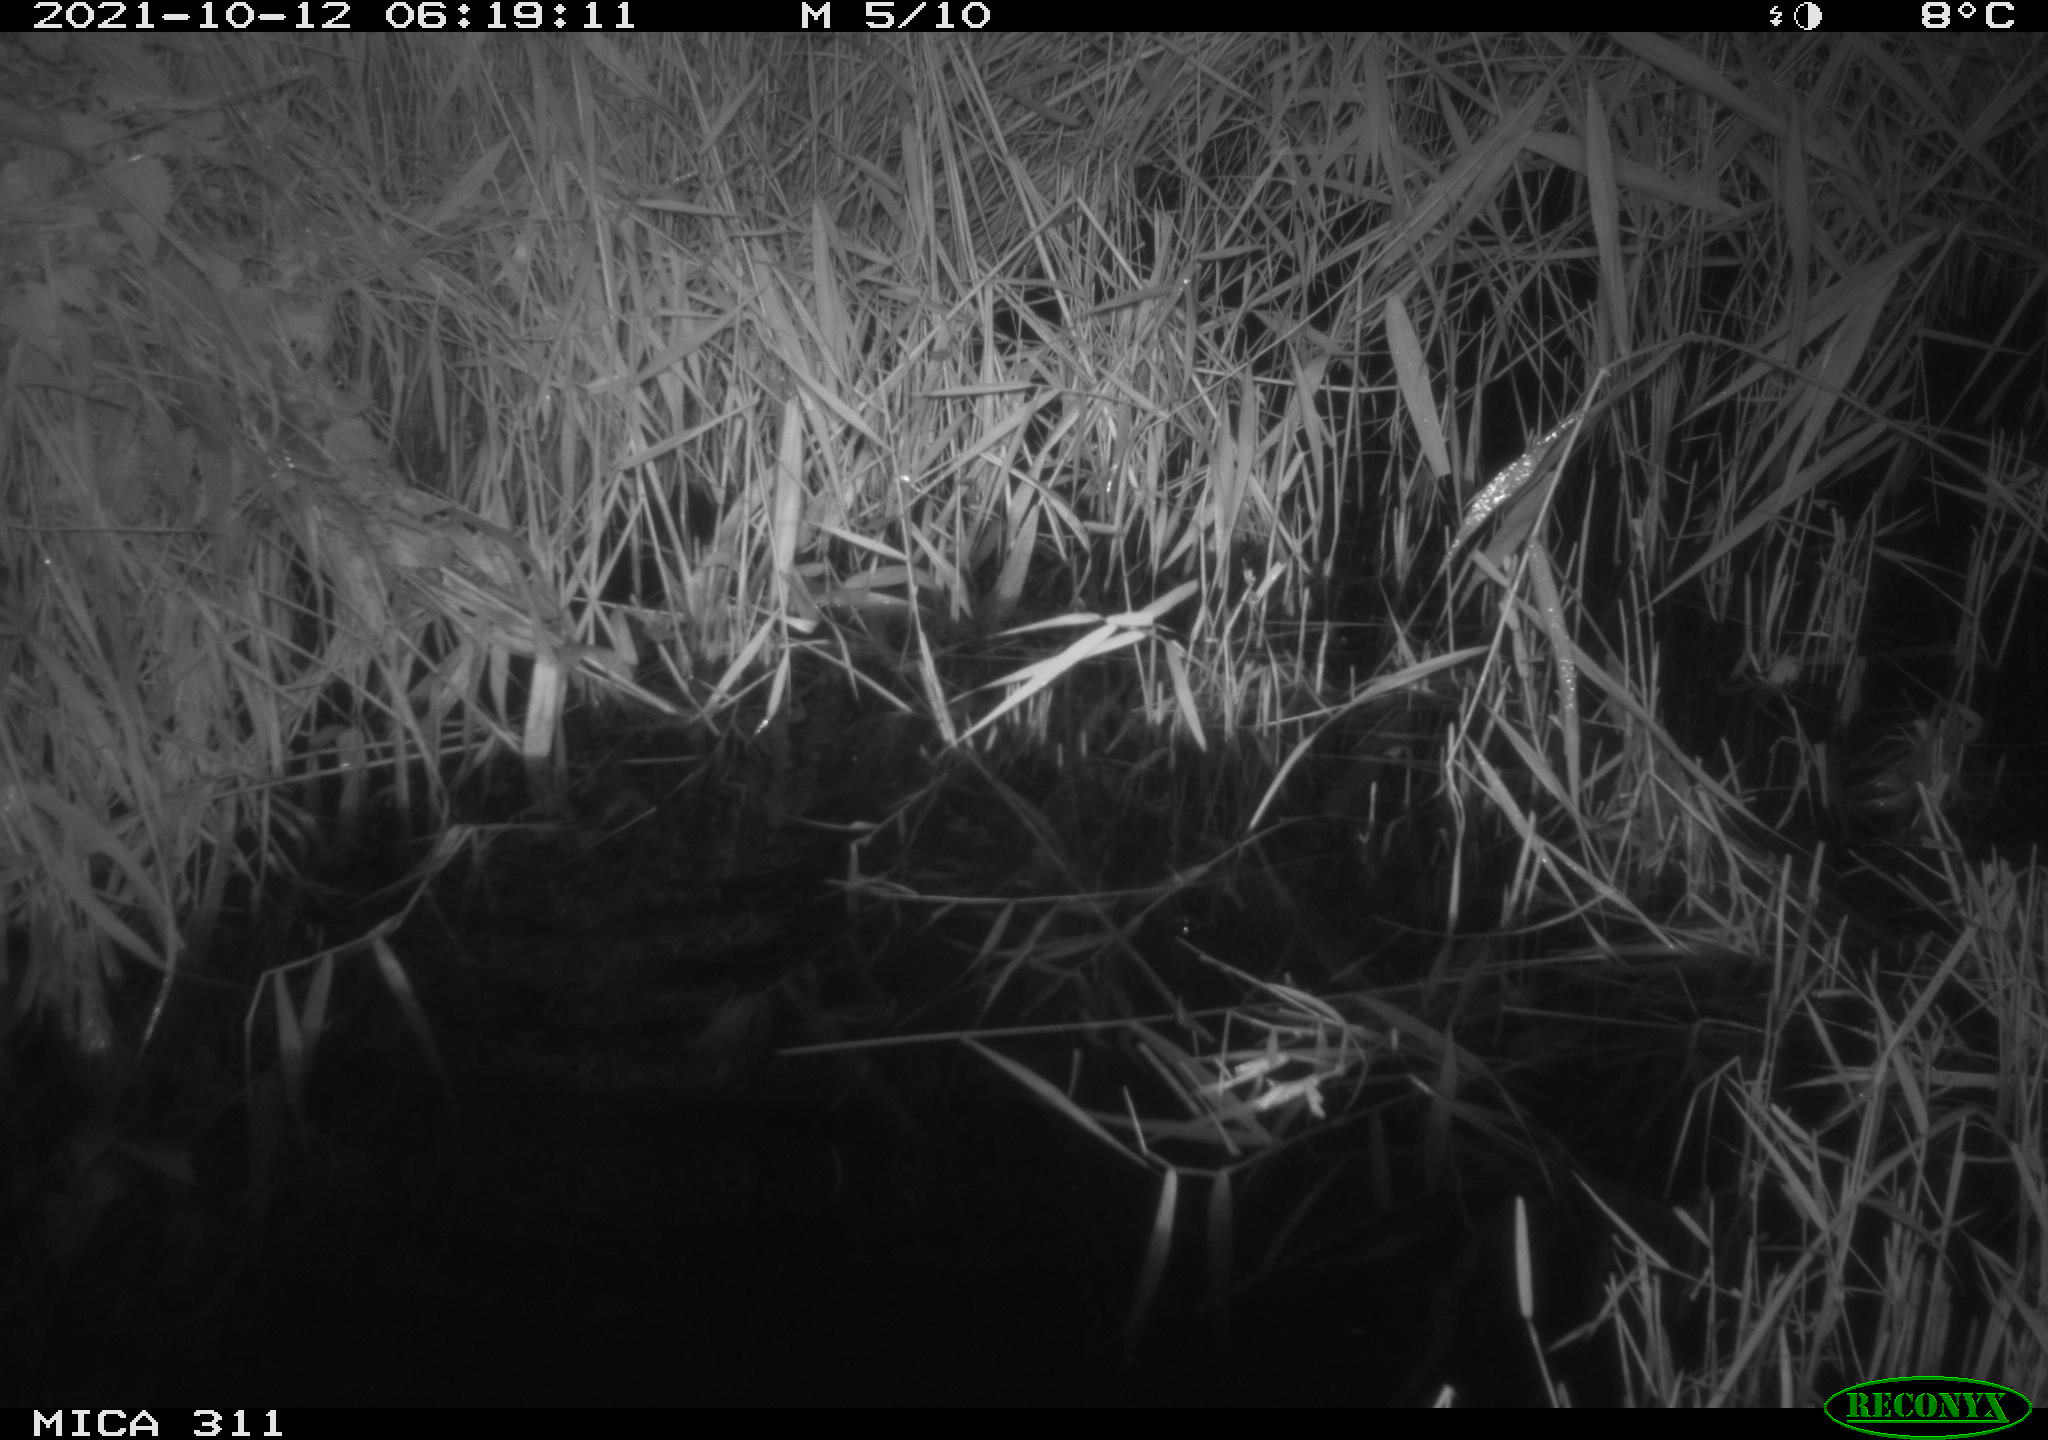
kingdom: Animalia
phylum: Chordata
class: Mammalia
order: Rodentia
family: Muridae
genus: Rattus
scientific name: Rattus norvegicus
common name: Brown rat
